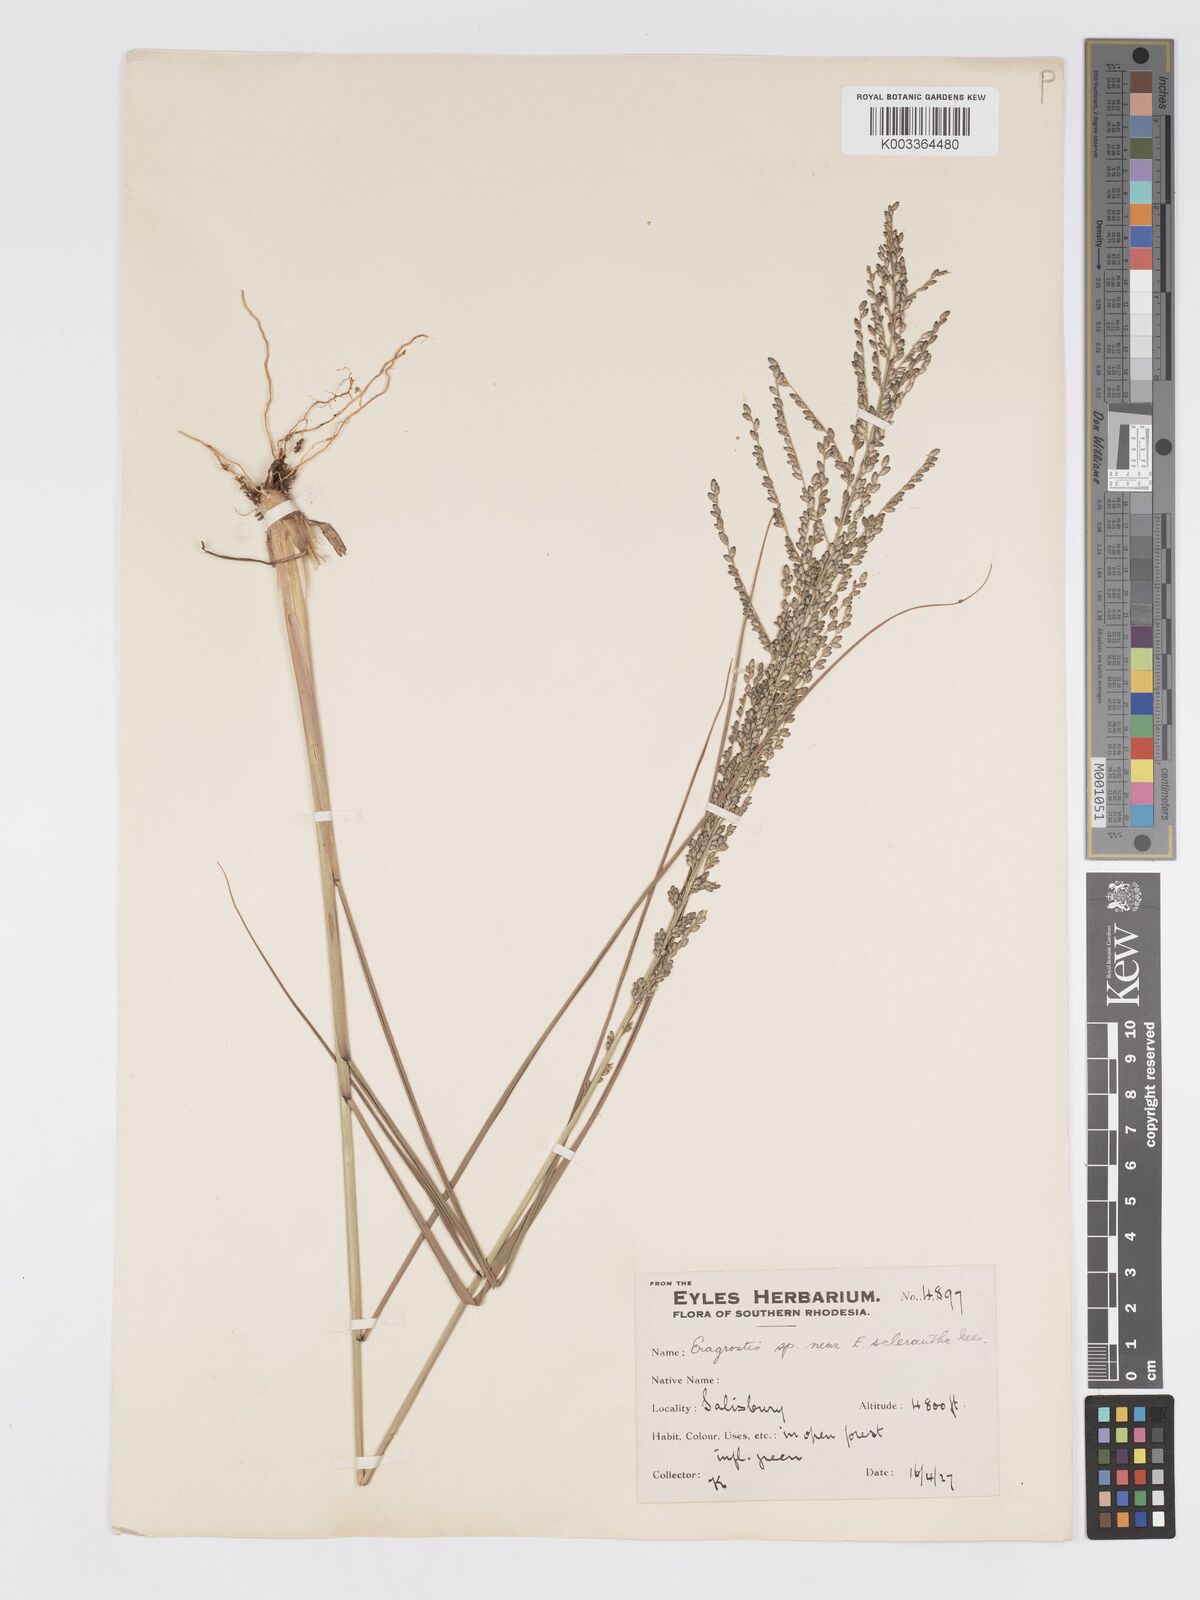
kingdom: Plantae
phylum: Tracheophyta
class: Liliopsida
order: Poales
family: Poaceae
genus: Eragrostis
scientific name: Eragrostis sclerantha
